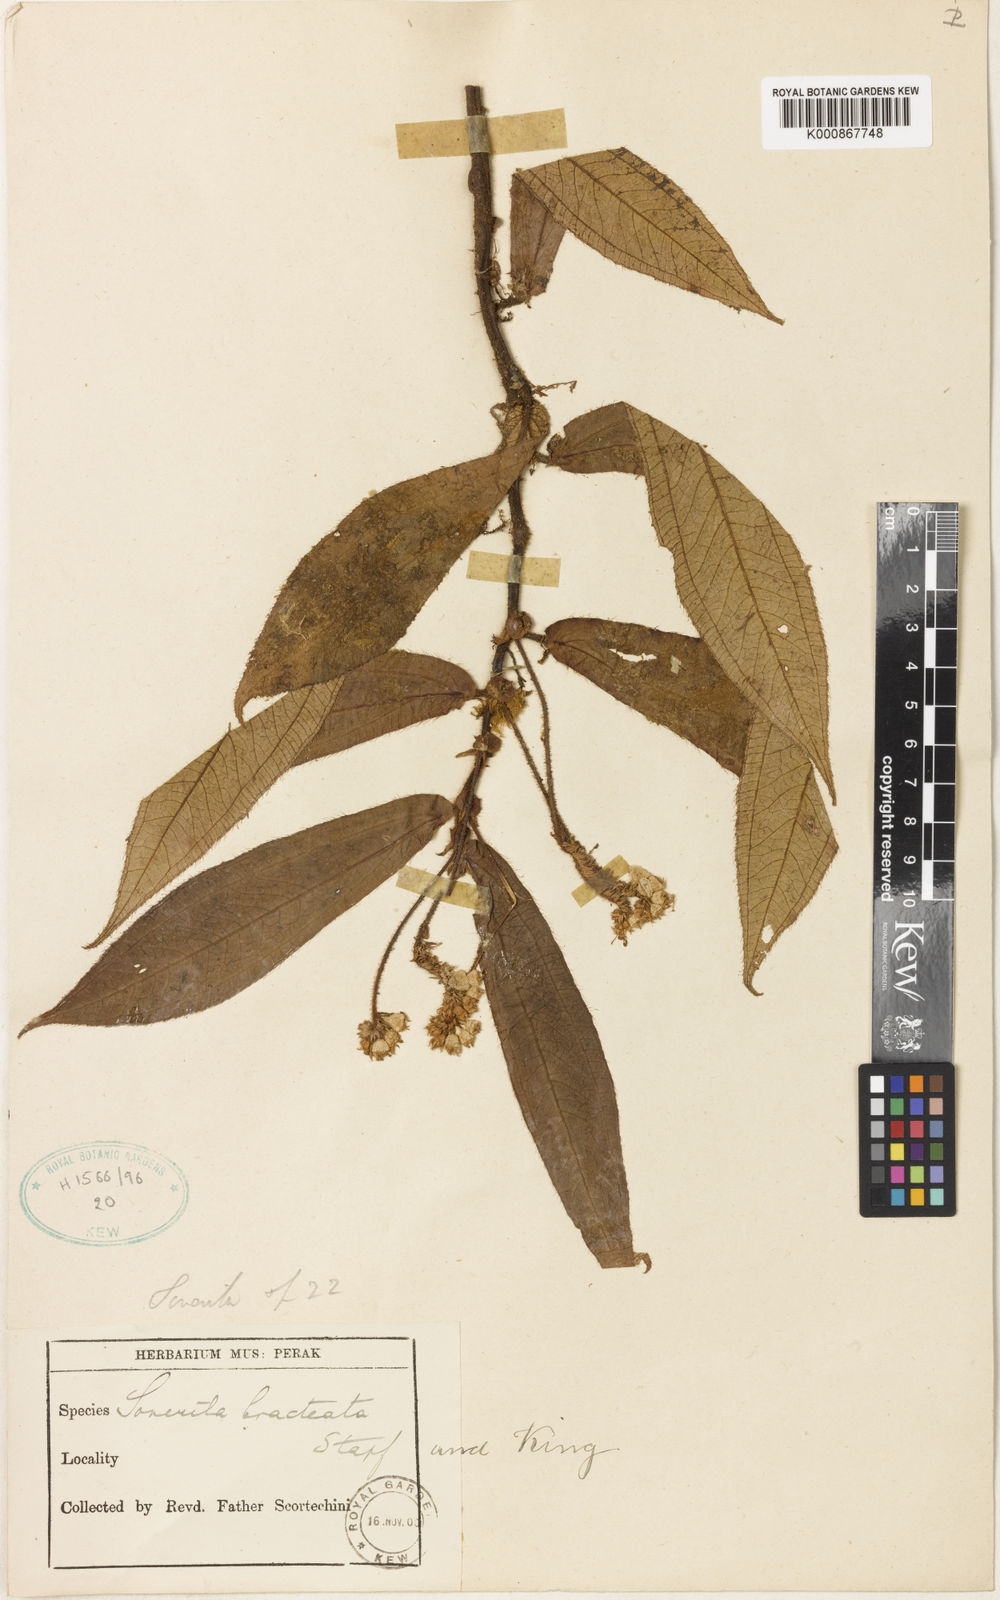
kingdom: Plantae
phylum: Tracheophyta
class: Magnoliopsida
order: Myrtales
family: Melastomataceae
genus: Sonerila
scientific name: Sonerila bracteata
